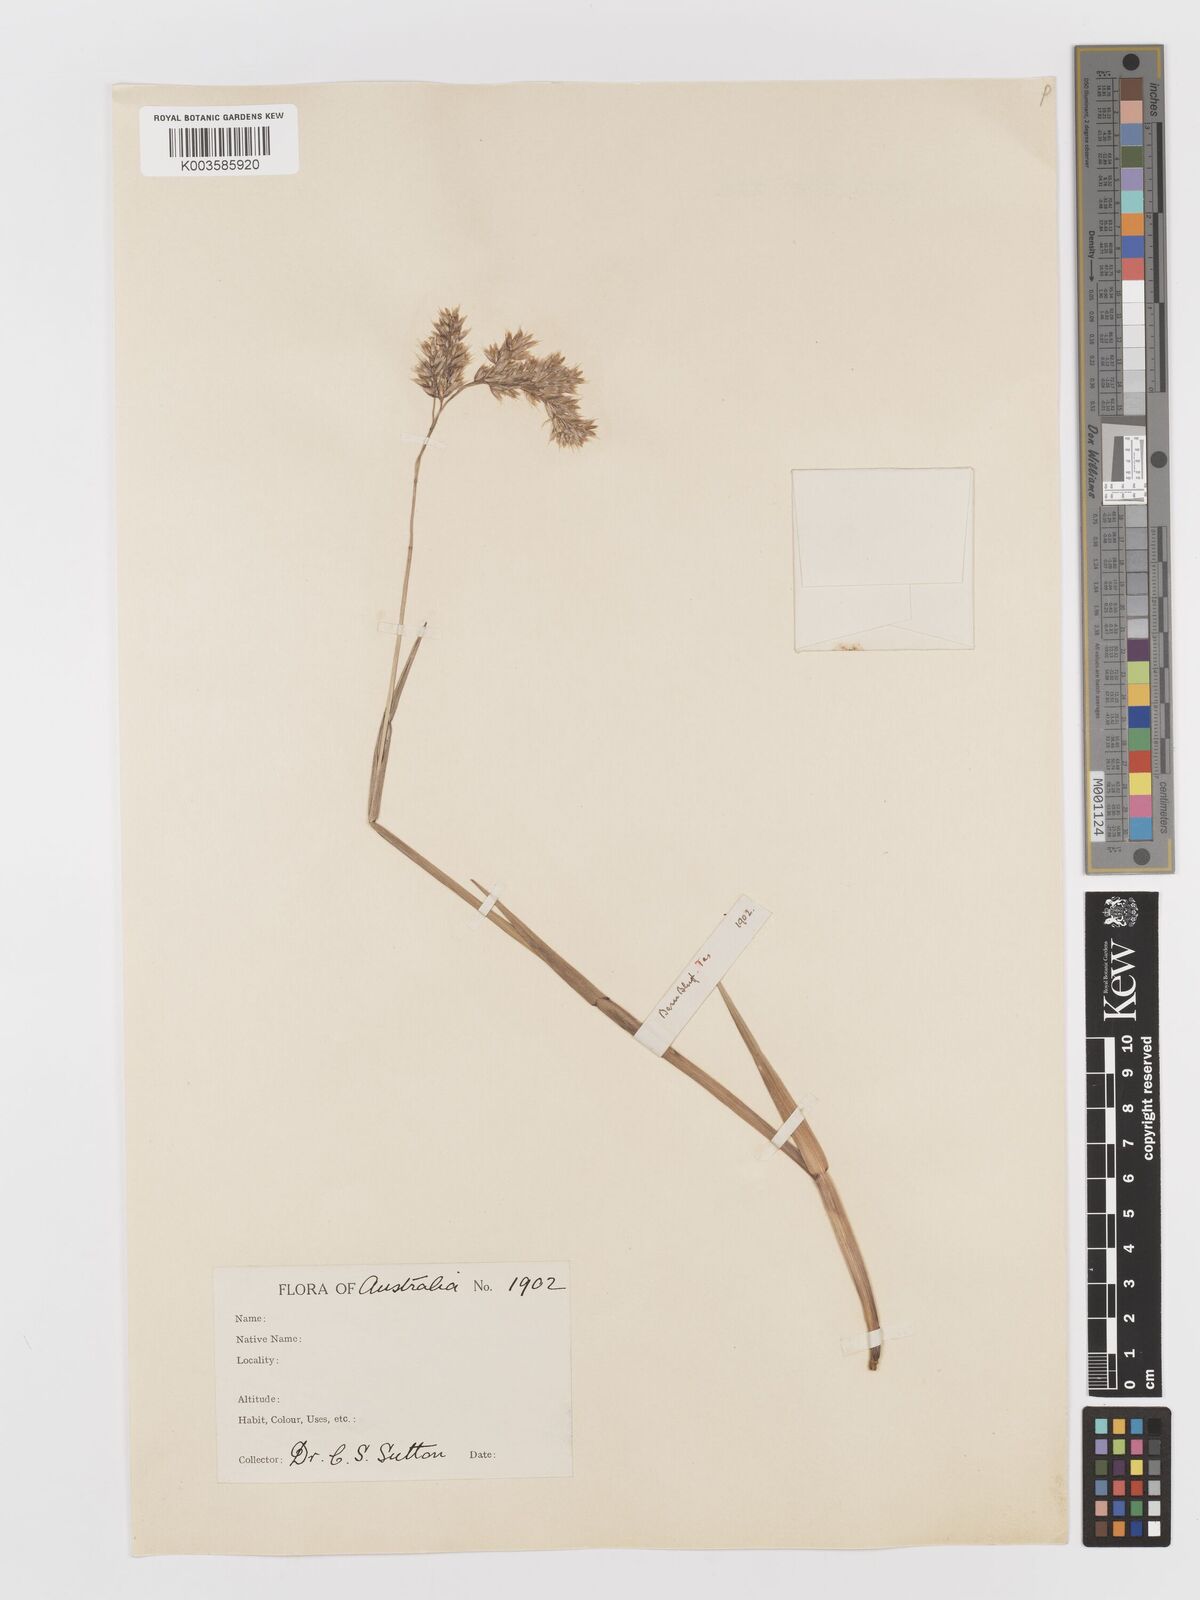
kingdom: Plantae
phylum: Tracheophyta
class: Liliopsida
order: Poales
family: Poaceae
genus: Hierochloe
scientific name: Hierochloe
